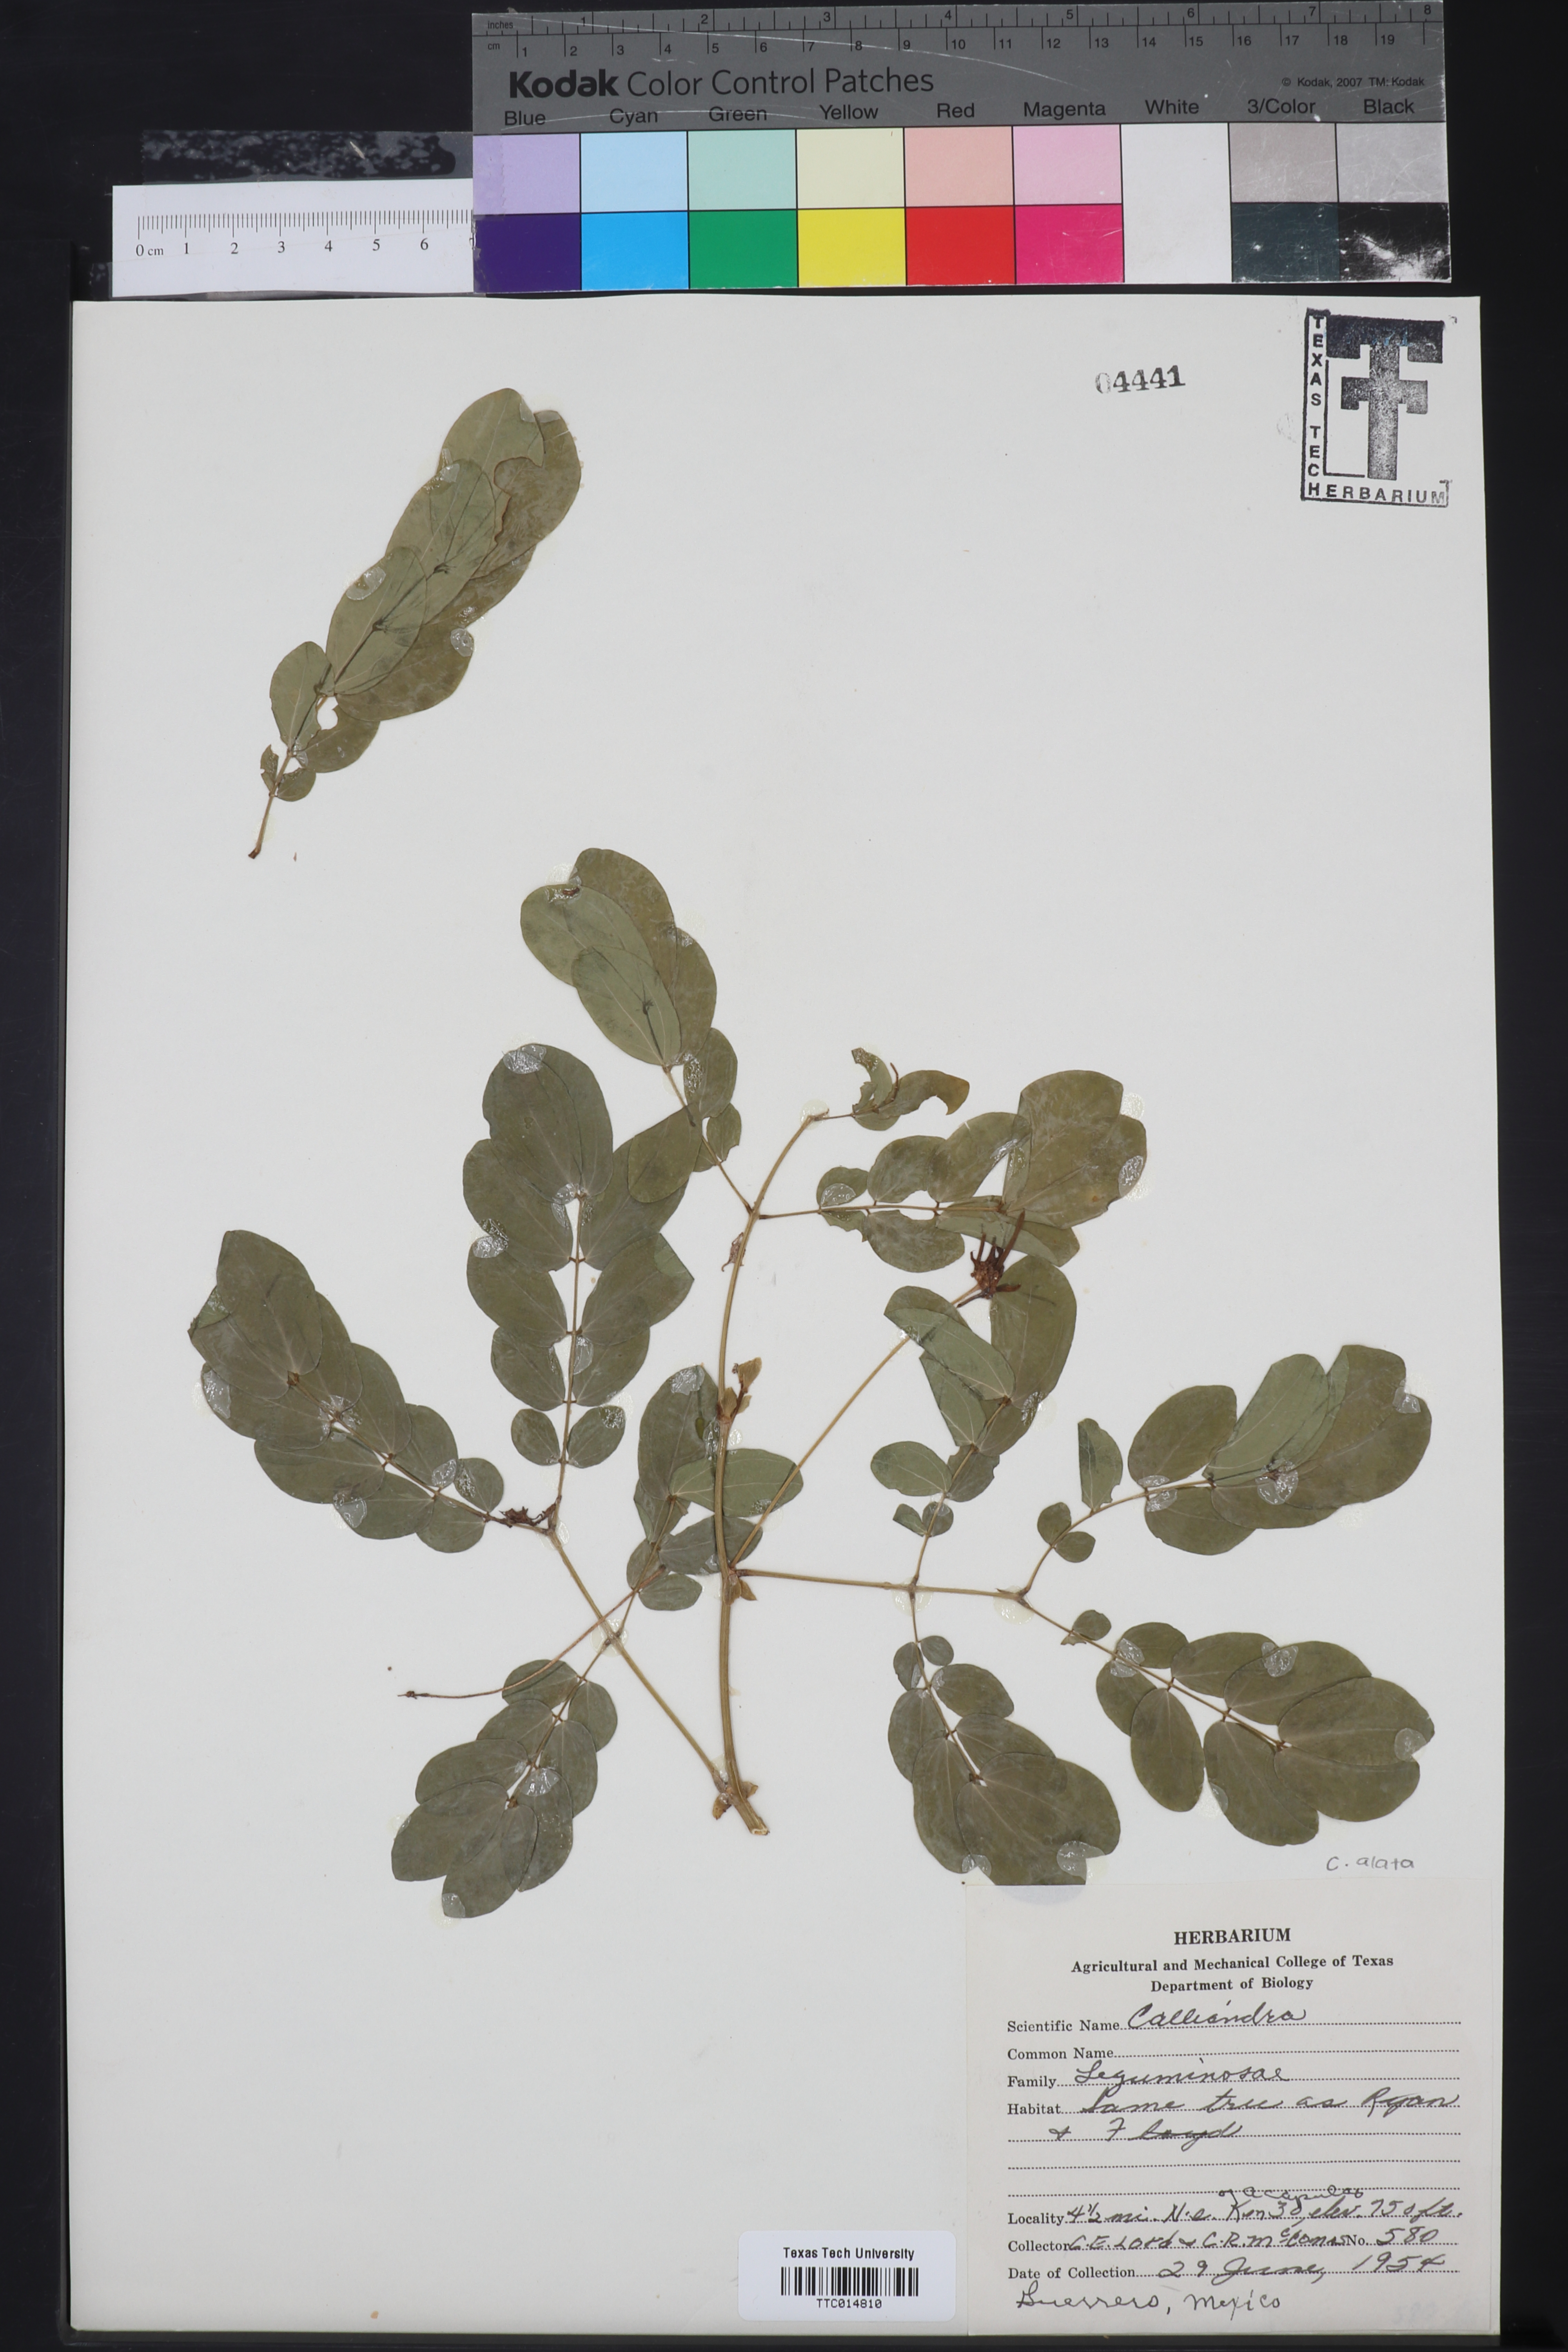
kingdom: Plantae
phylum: Tracheophyta
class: Magnoliopsida
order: Fabales
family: Fabaceae
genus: Calliandra
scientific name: Calliandra
